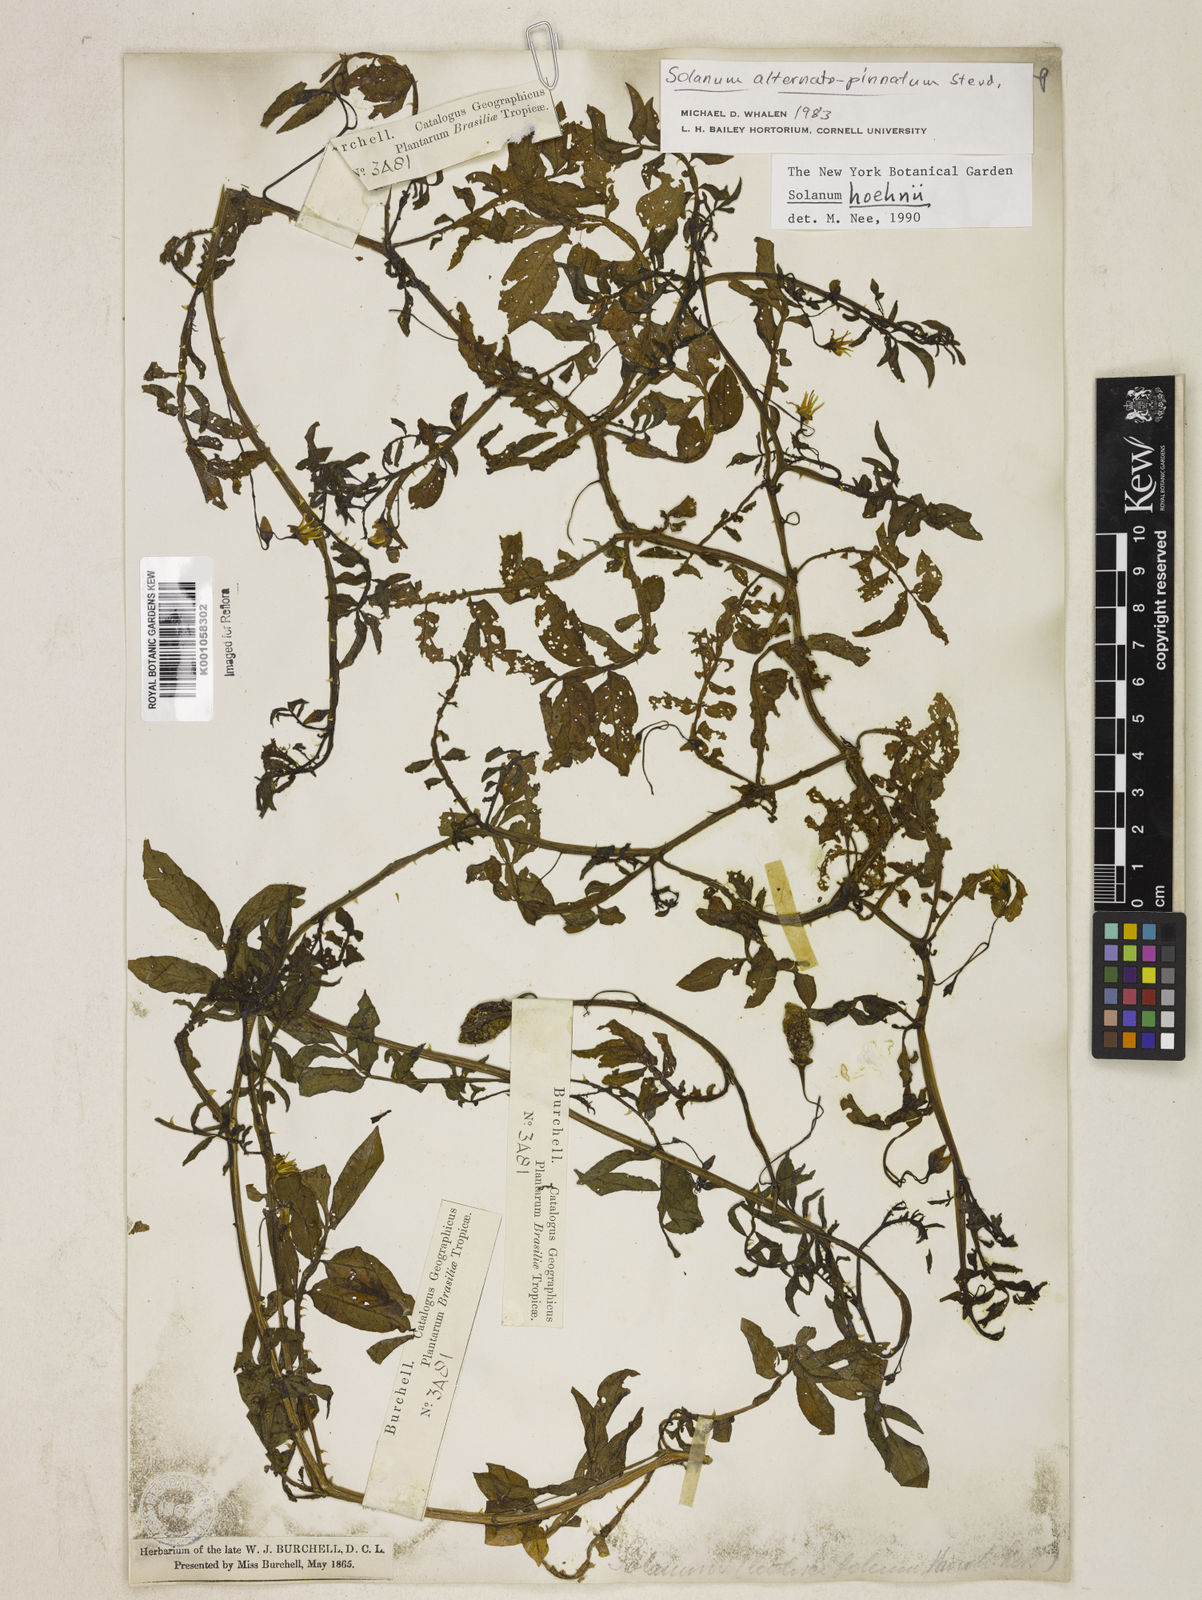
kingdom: Plantae
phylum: Tracheophyta
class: Magnoliopsida
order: Solanales
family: Solanaceae
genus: Solanum
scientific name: Solanum hoehnei
